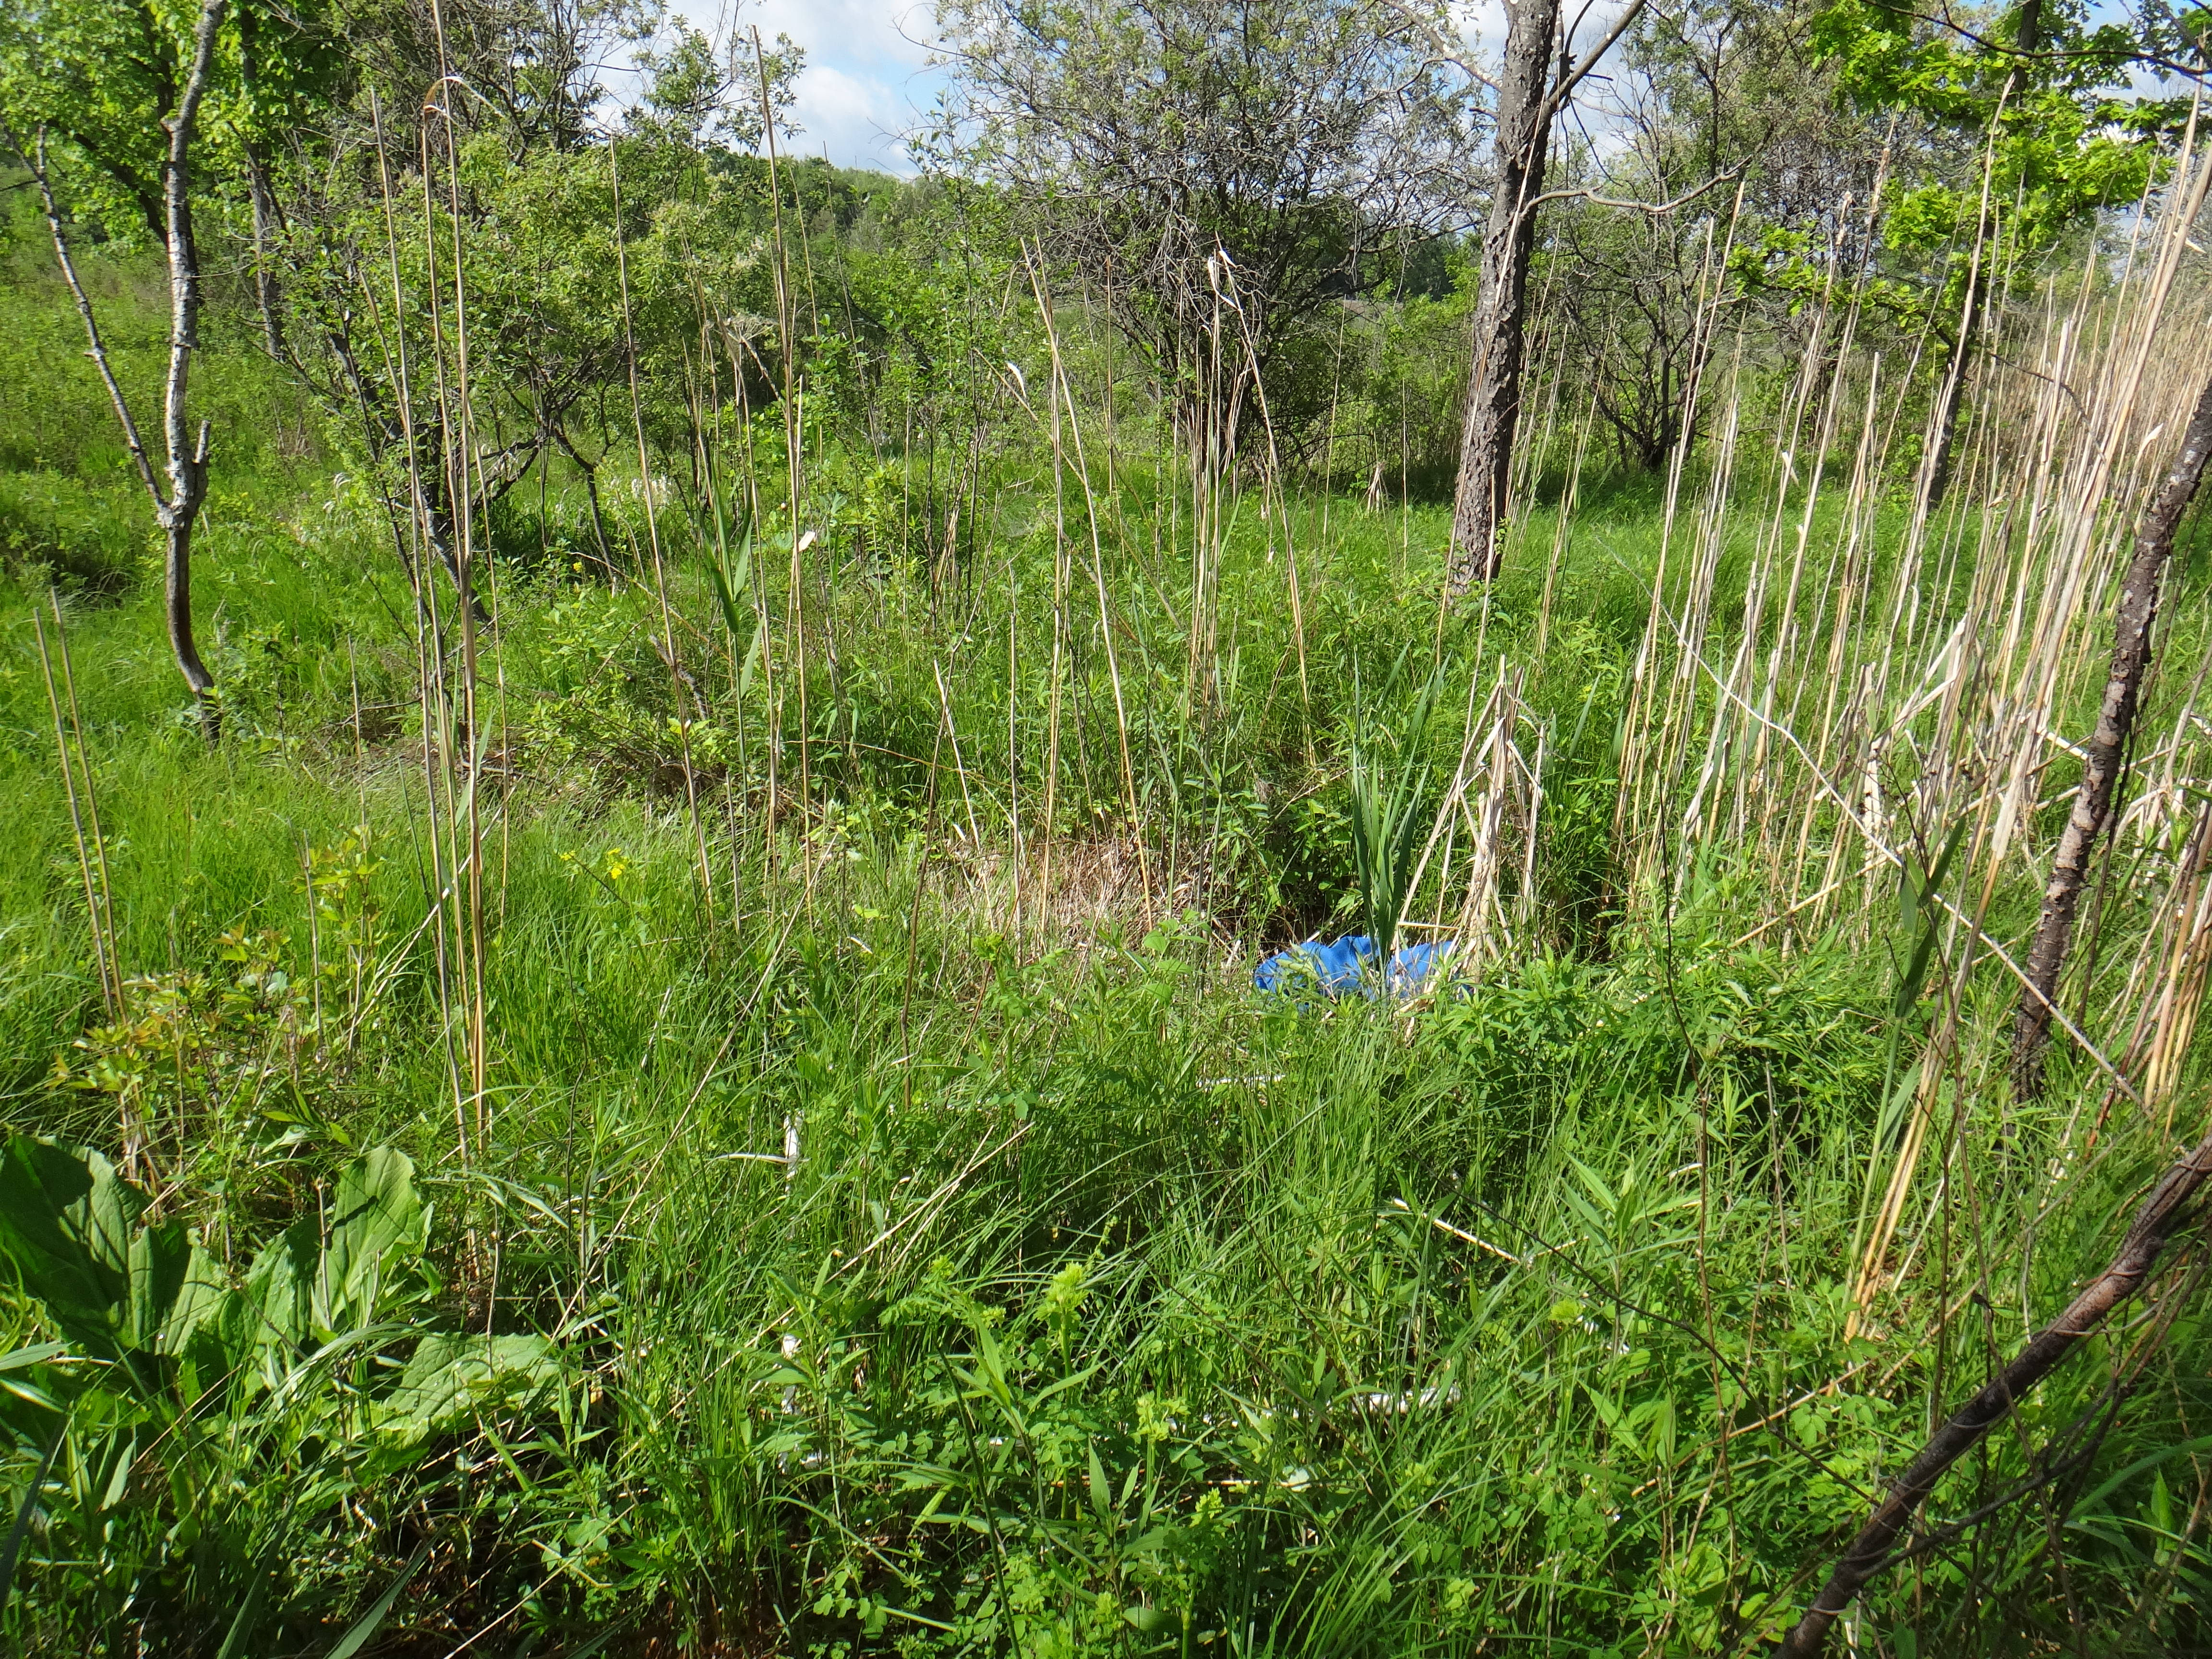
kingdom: Plantae
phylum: Tracheophyta
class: Liliopsida
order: Poales
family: Cyperaceae
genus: Carex
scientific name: Carex stricta
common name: Hummock sedge
